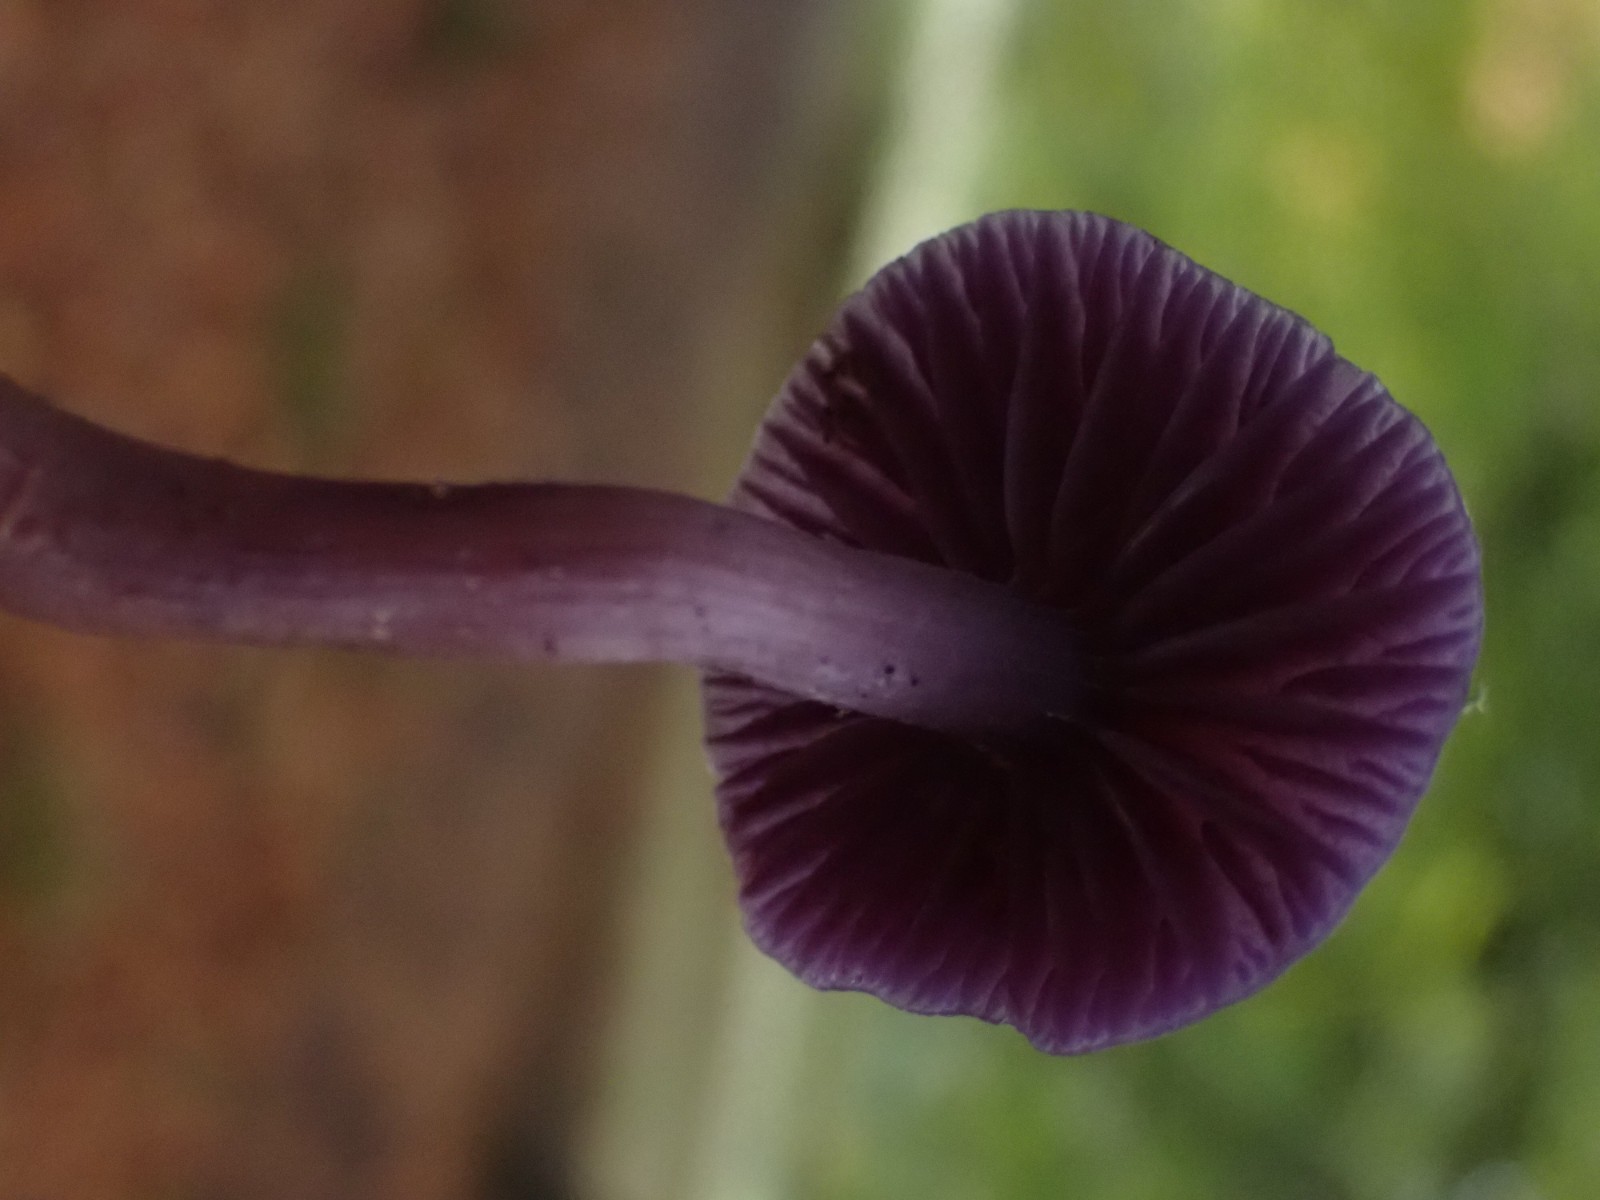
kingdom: Fungi
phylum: Basidiomycota
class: Agaricomycetes
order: Agaricales
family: Hydnangiaceae
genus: Laccaria
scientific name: Laccaria amethystina
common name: violet ametysthat
